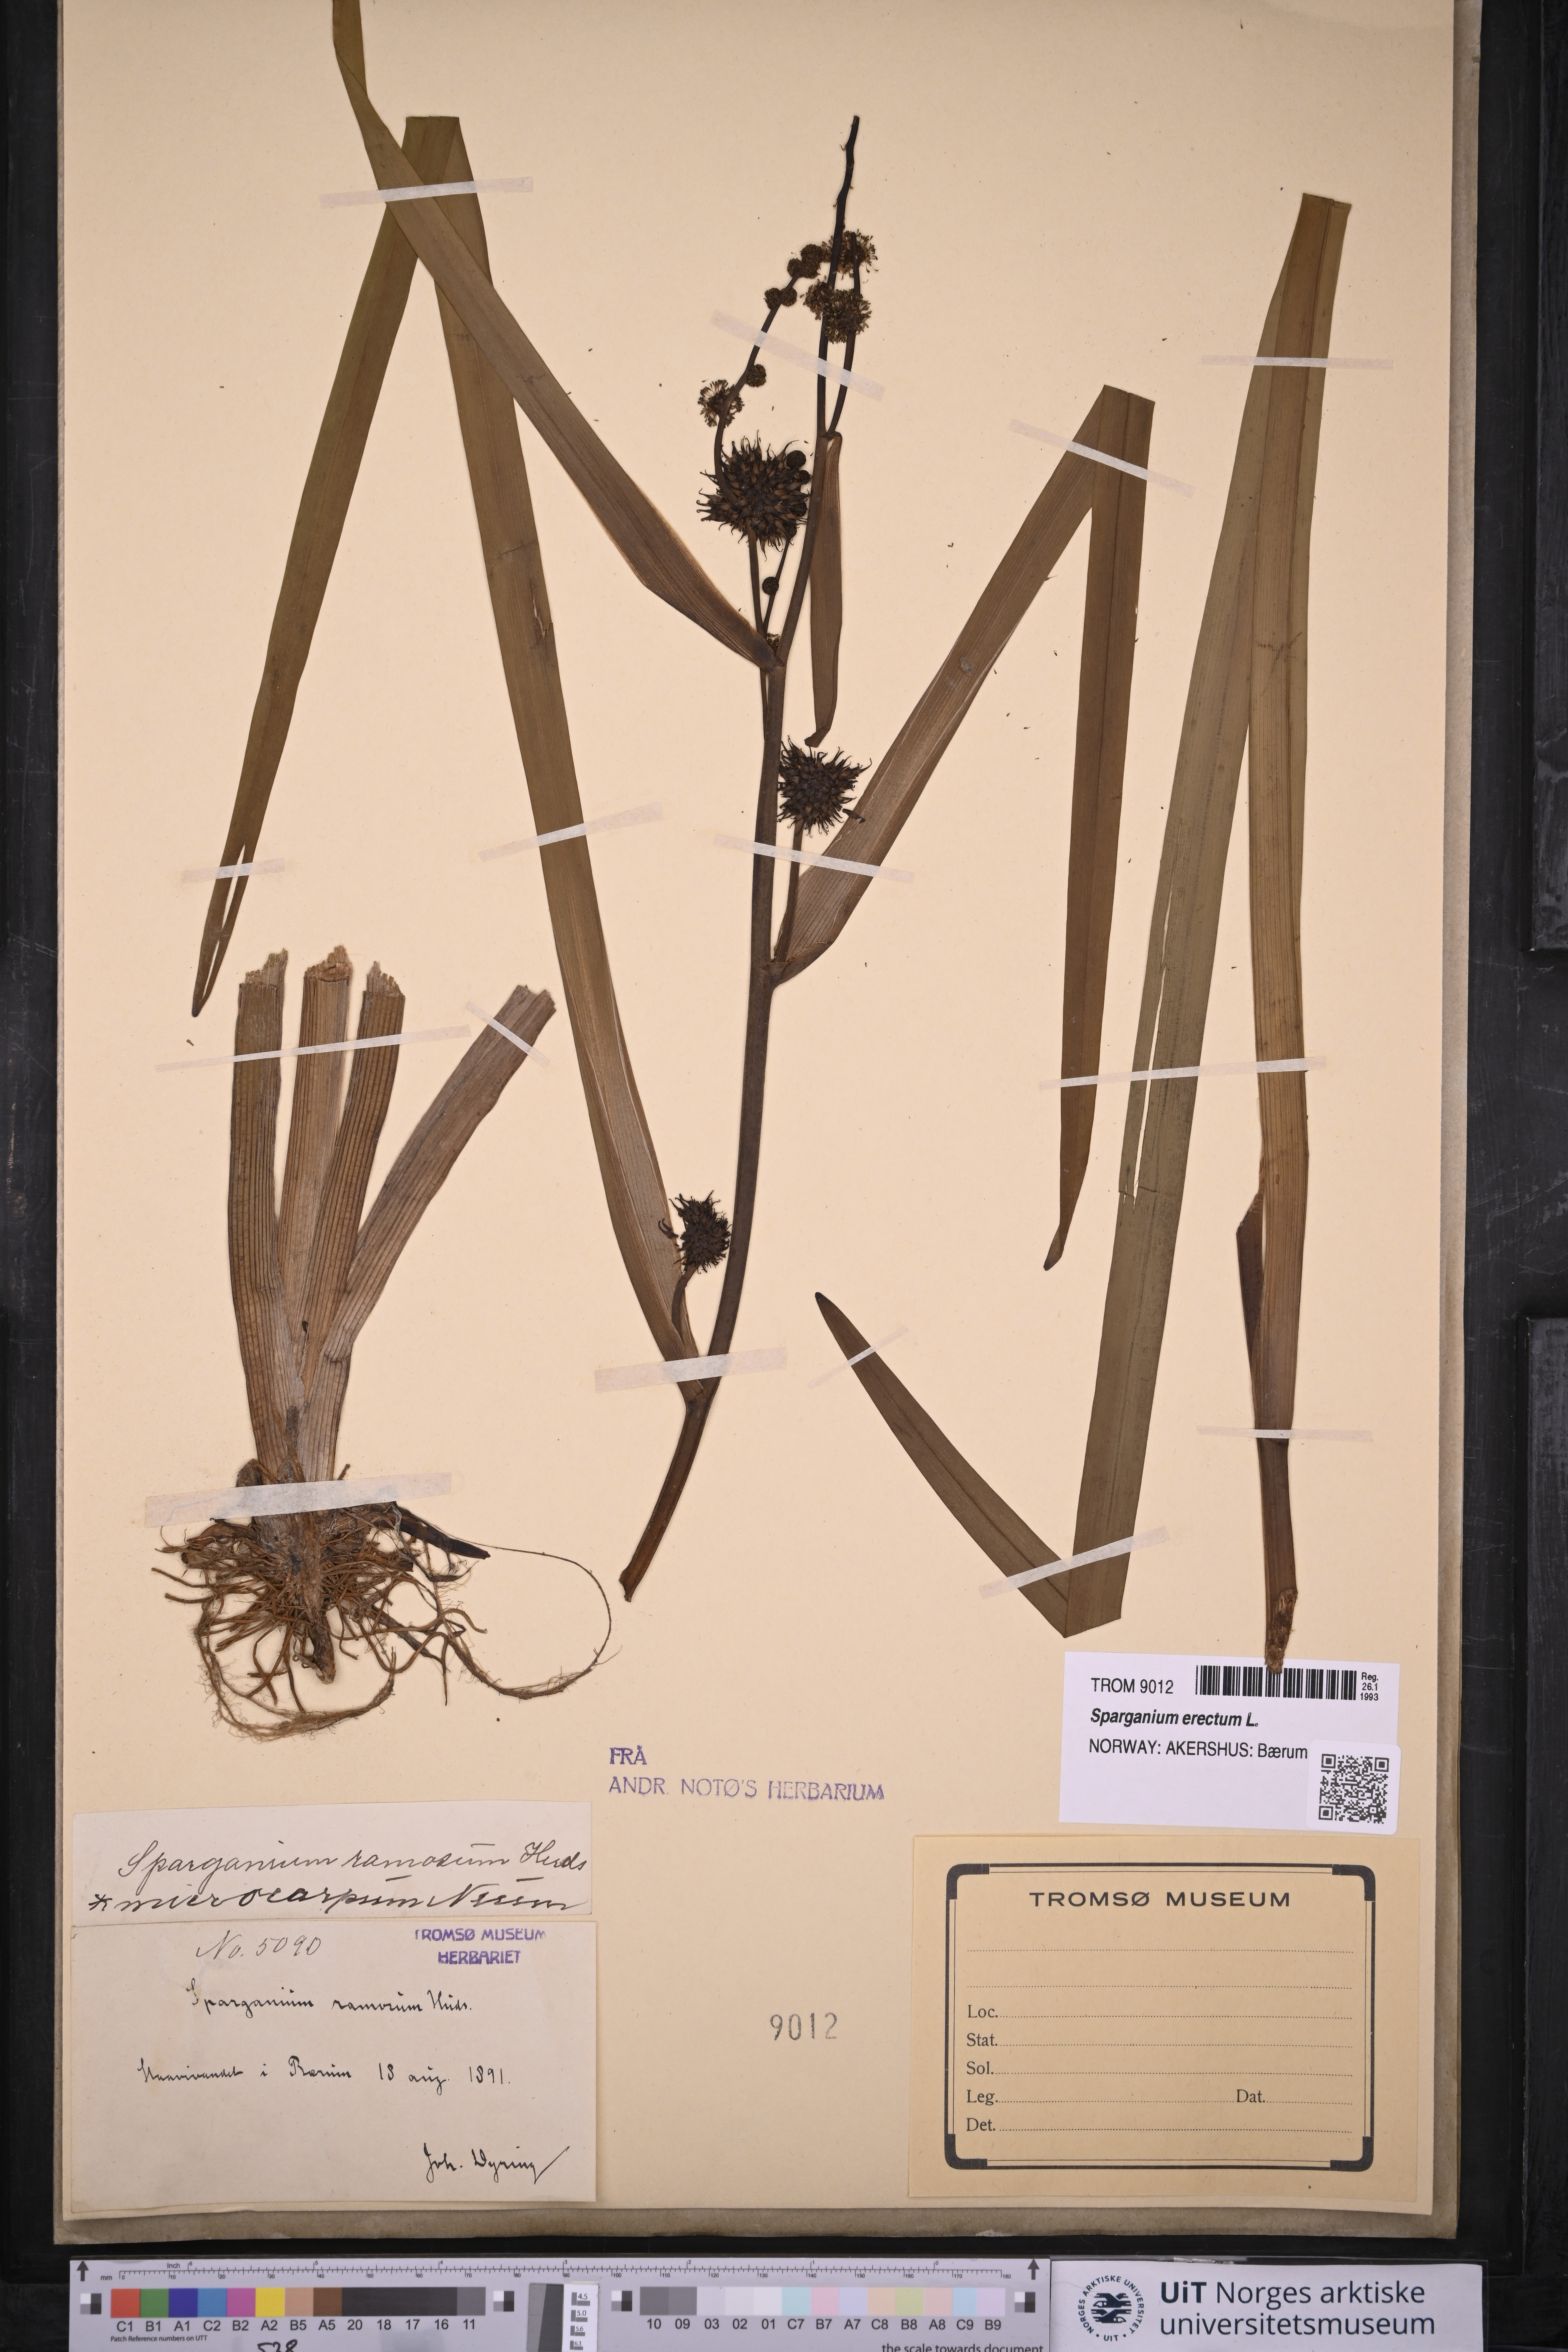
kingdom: Plantae
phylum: Tracheophyta
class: Liliopsida
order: Poales
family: Typhaceae
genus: Sparganium
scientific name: Sparganium erectum
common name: Branched bur-reed
